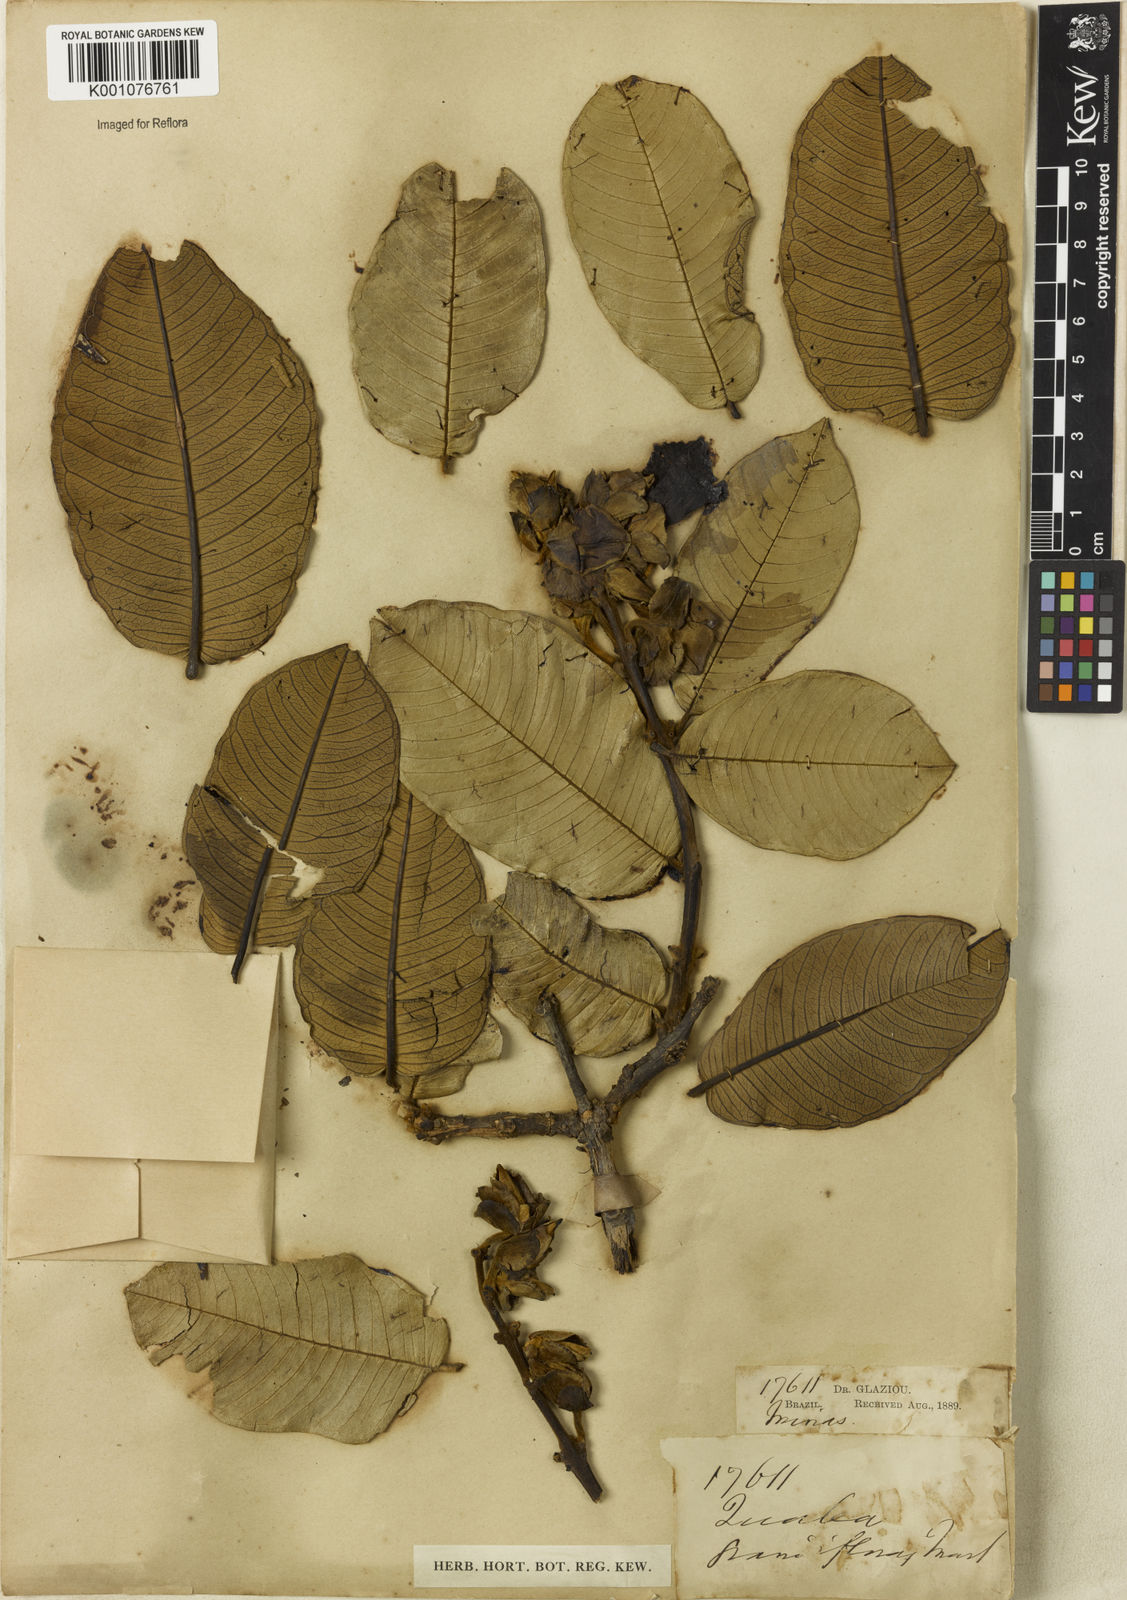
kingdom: Plantae
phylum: Tracheophyta
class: Magnoliopsida
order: Myrtales
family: Vochysiaceae
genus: Qualea
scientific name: Qualea grandiflora
